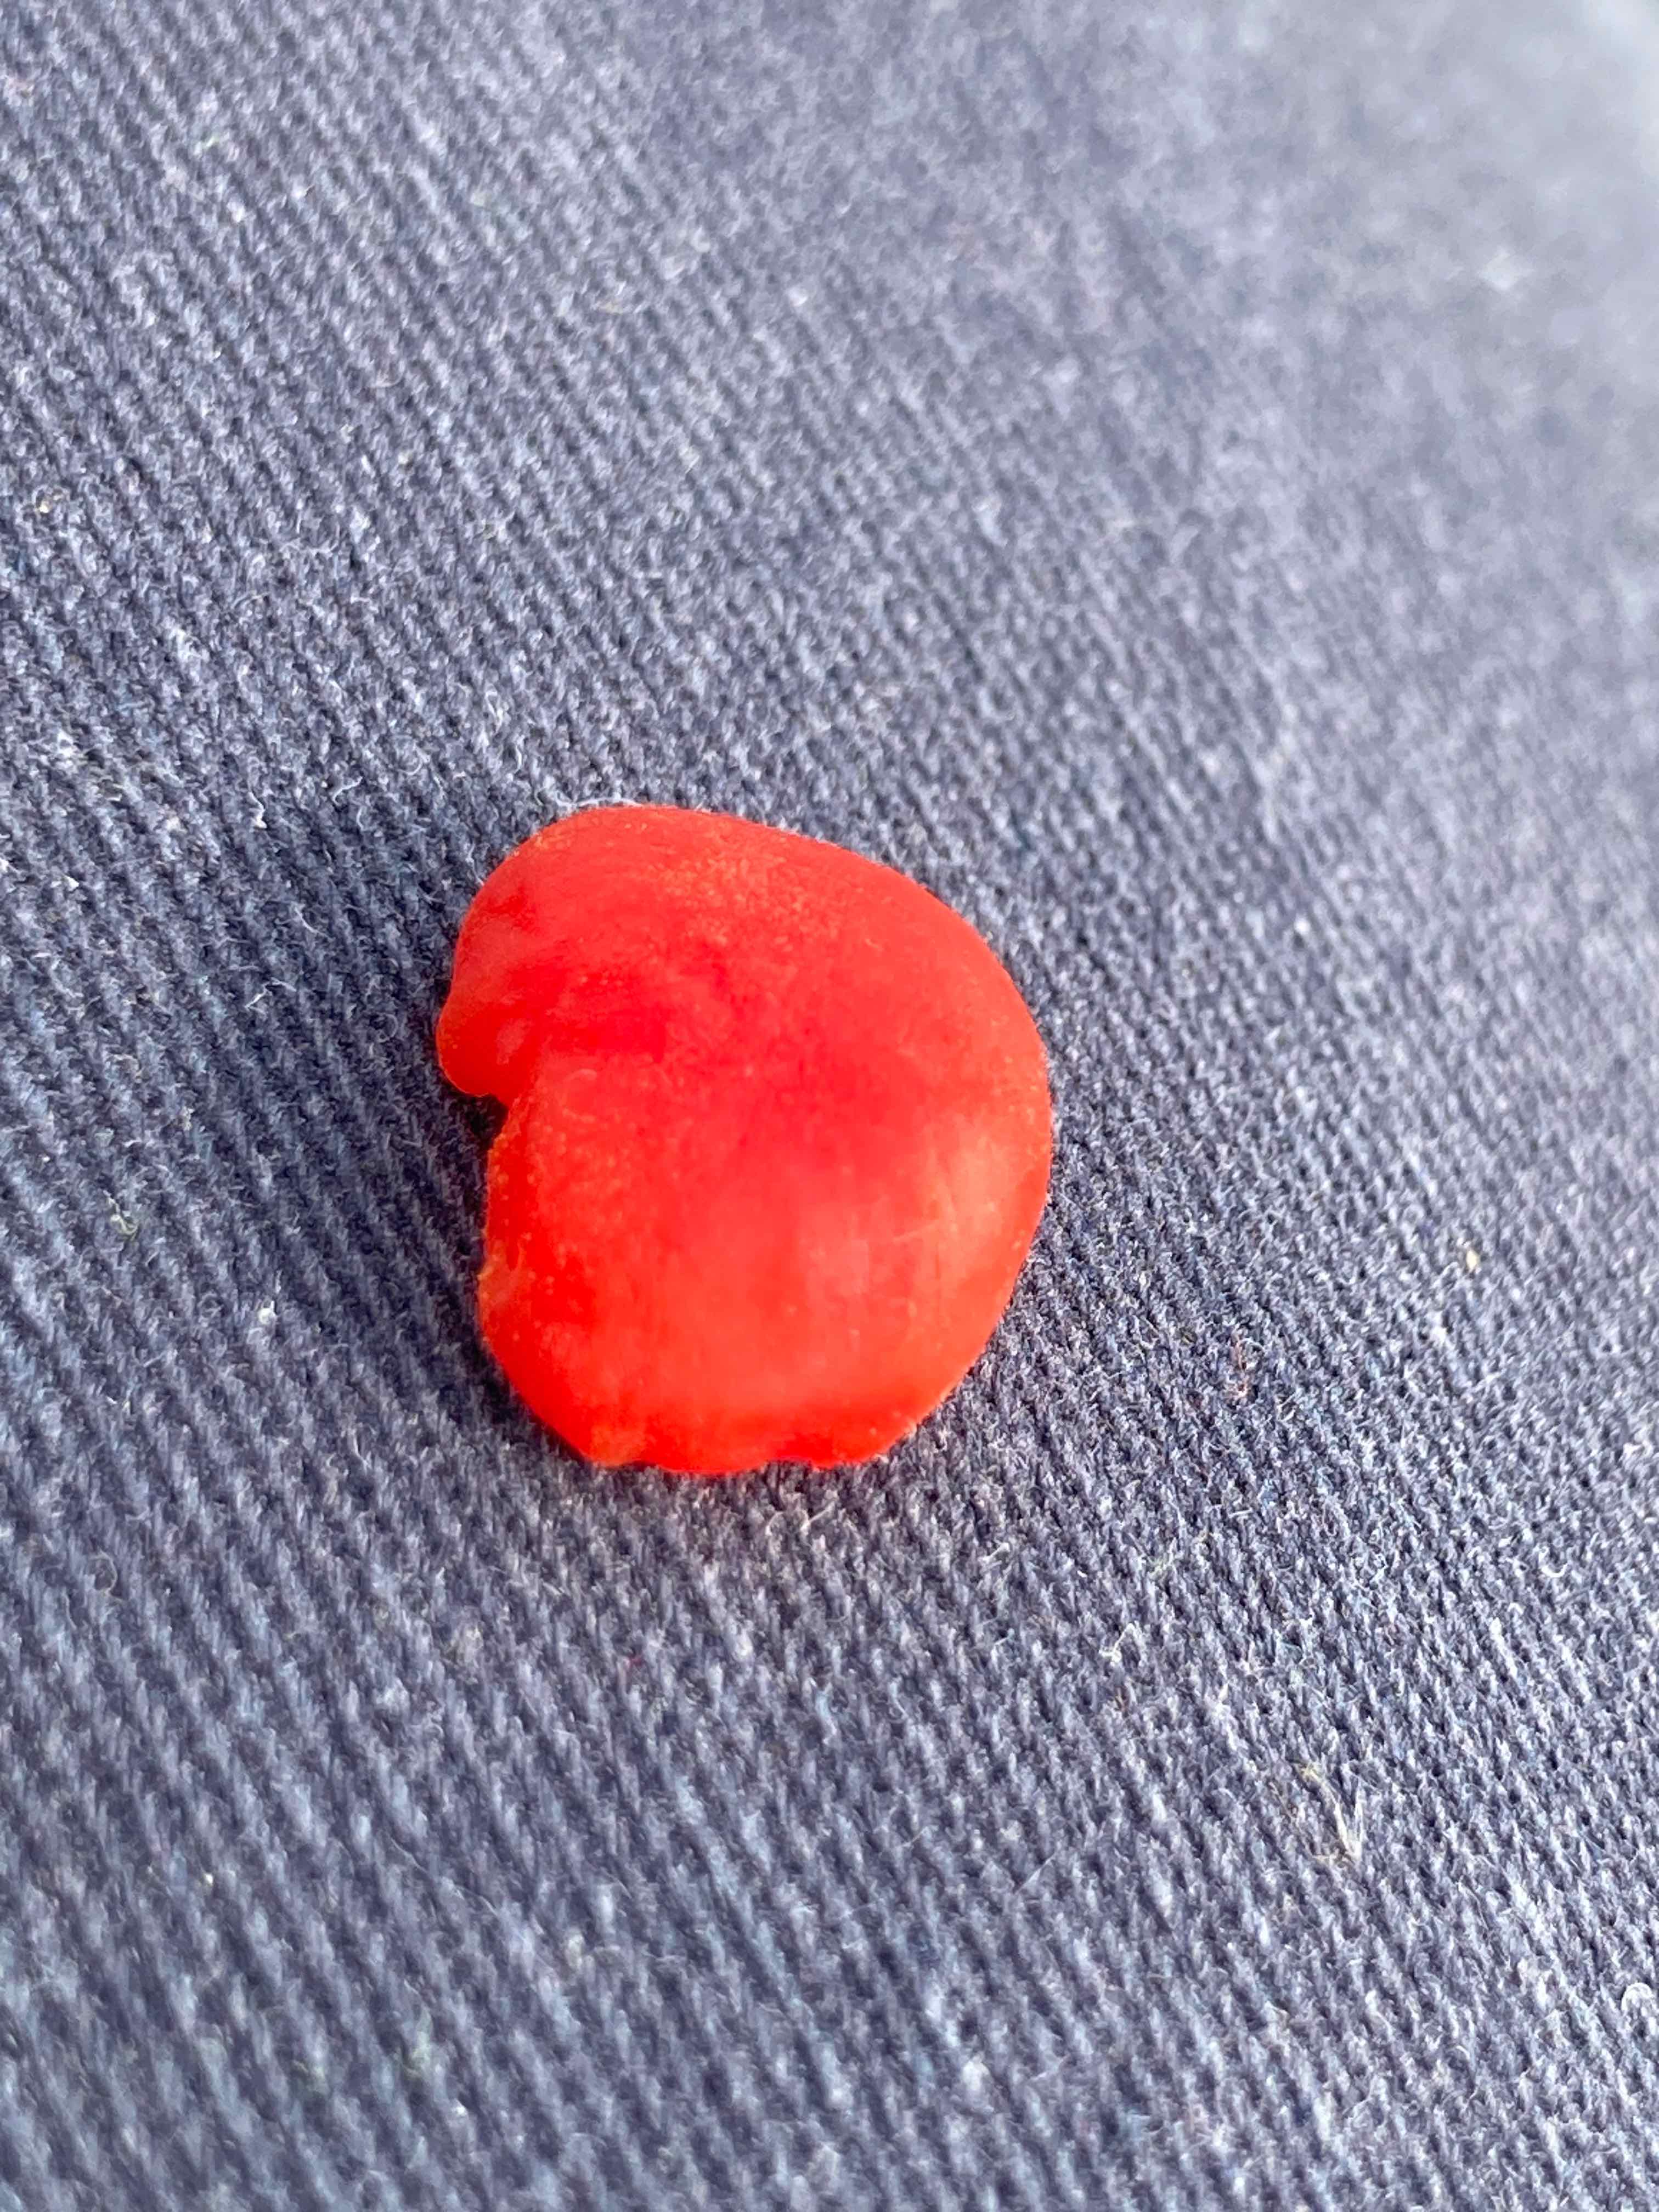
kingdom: Fungi
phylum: Basidiomycota
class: Agaricomycetes
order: Agaricales
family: Hygrophoraceae
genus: Hygrocybe
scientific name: Hygrocybe miniata
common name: mønje-vokshat
